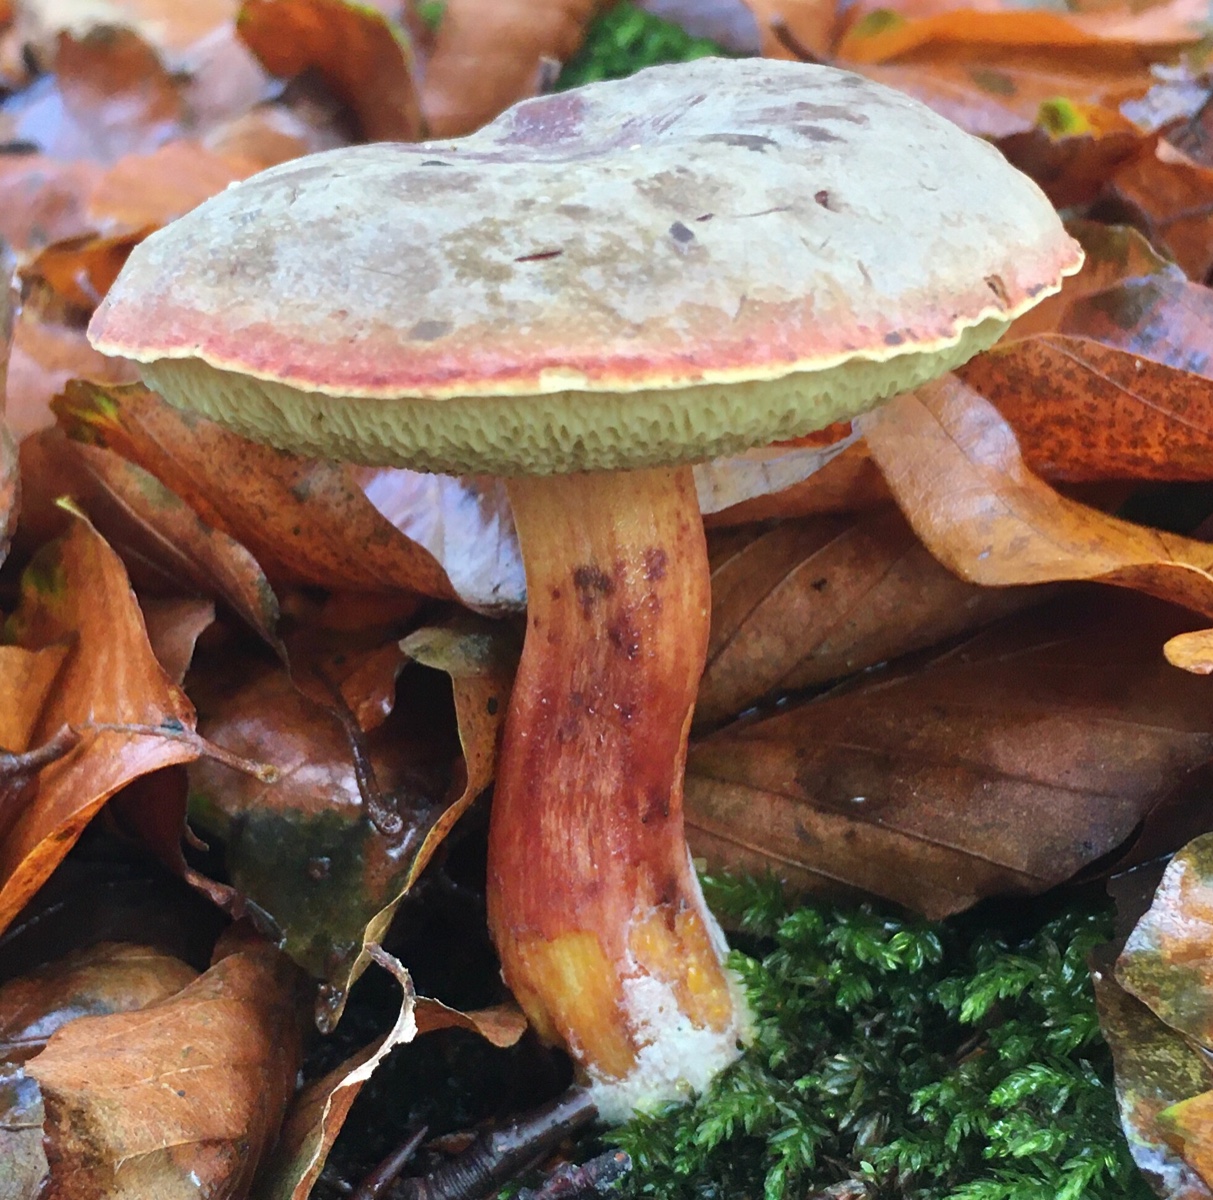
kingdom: Fungi
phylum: Basidiomycota
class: Agaricomycetes
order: Boletales
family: Boletaceae
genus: Xerocomellus
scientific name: Xerocomellus pruinatus
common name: dugget rørhat
